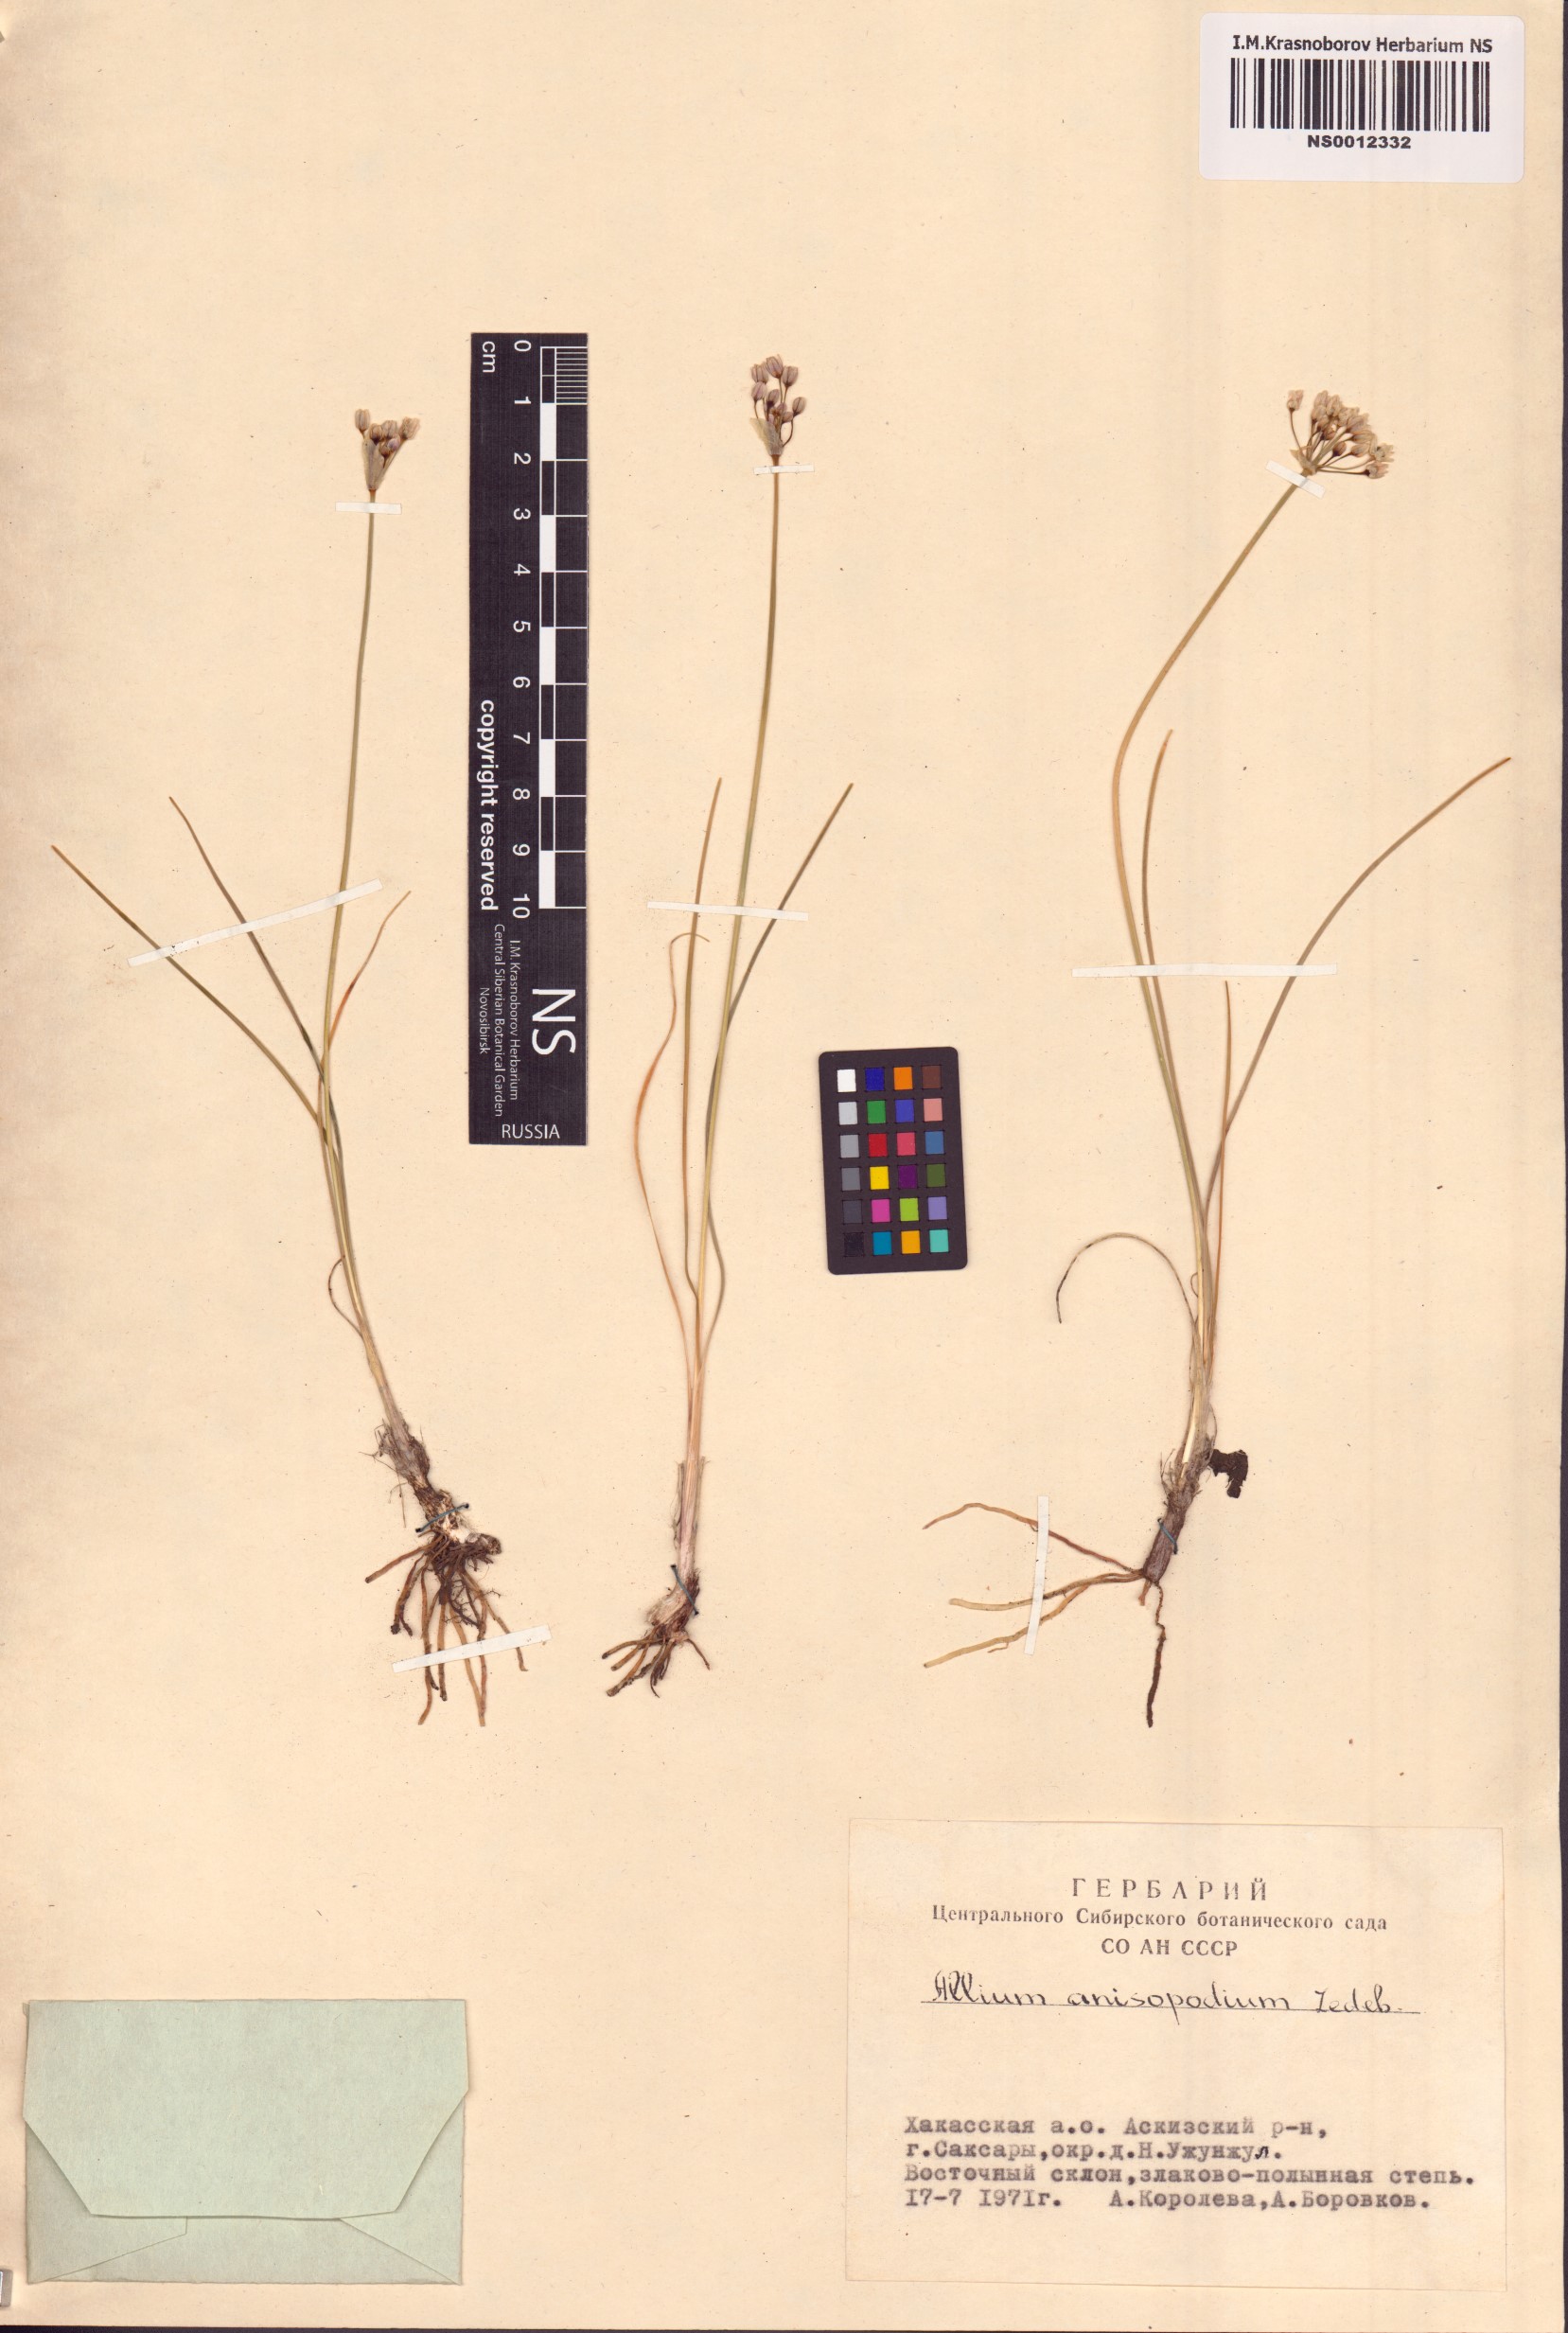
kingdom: Plantae
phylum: Tracheophyta
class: Liliopsida
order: Asparagales
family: Amaryllidaceae
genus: Allium
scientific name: Allium anisopodium
